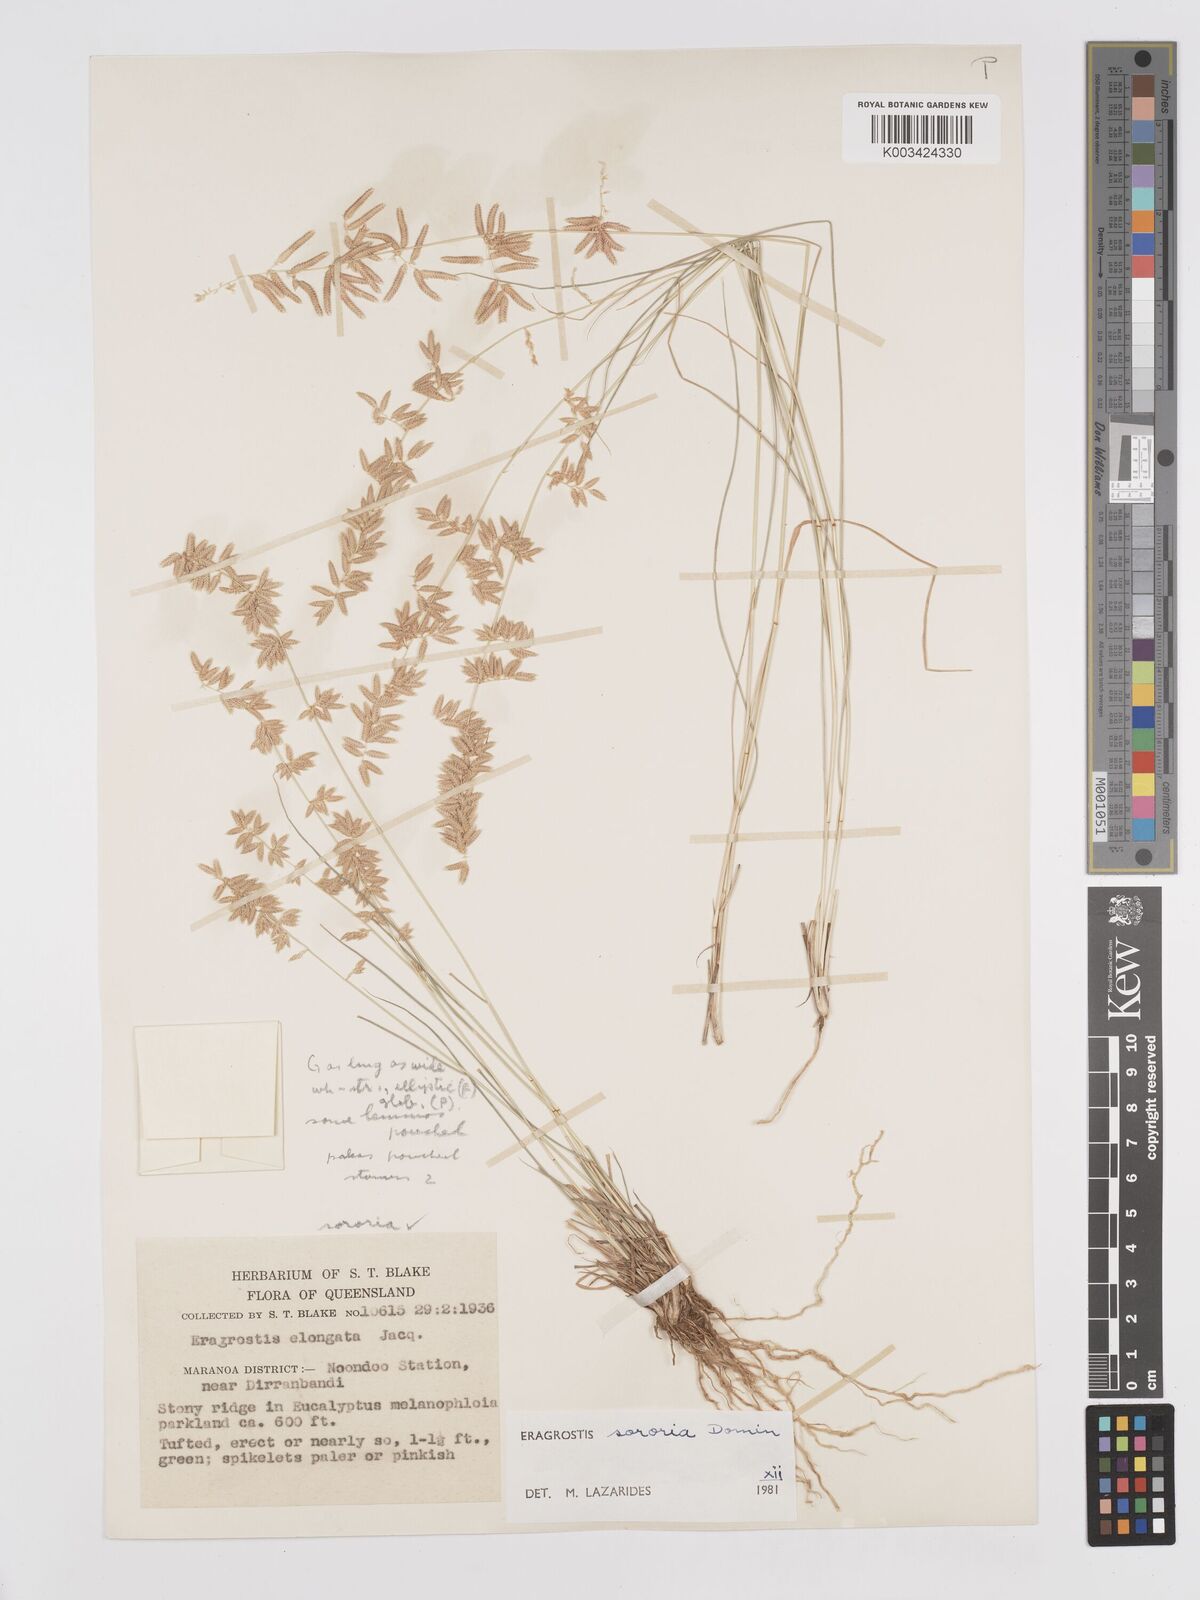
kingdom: Plantae
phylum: Tracheophyta
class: Liliopsida
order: Poales
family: Poaceae
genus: Eragrostis
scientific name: Eragrostis sororia
